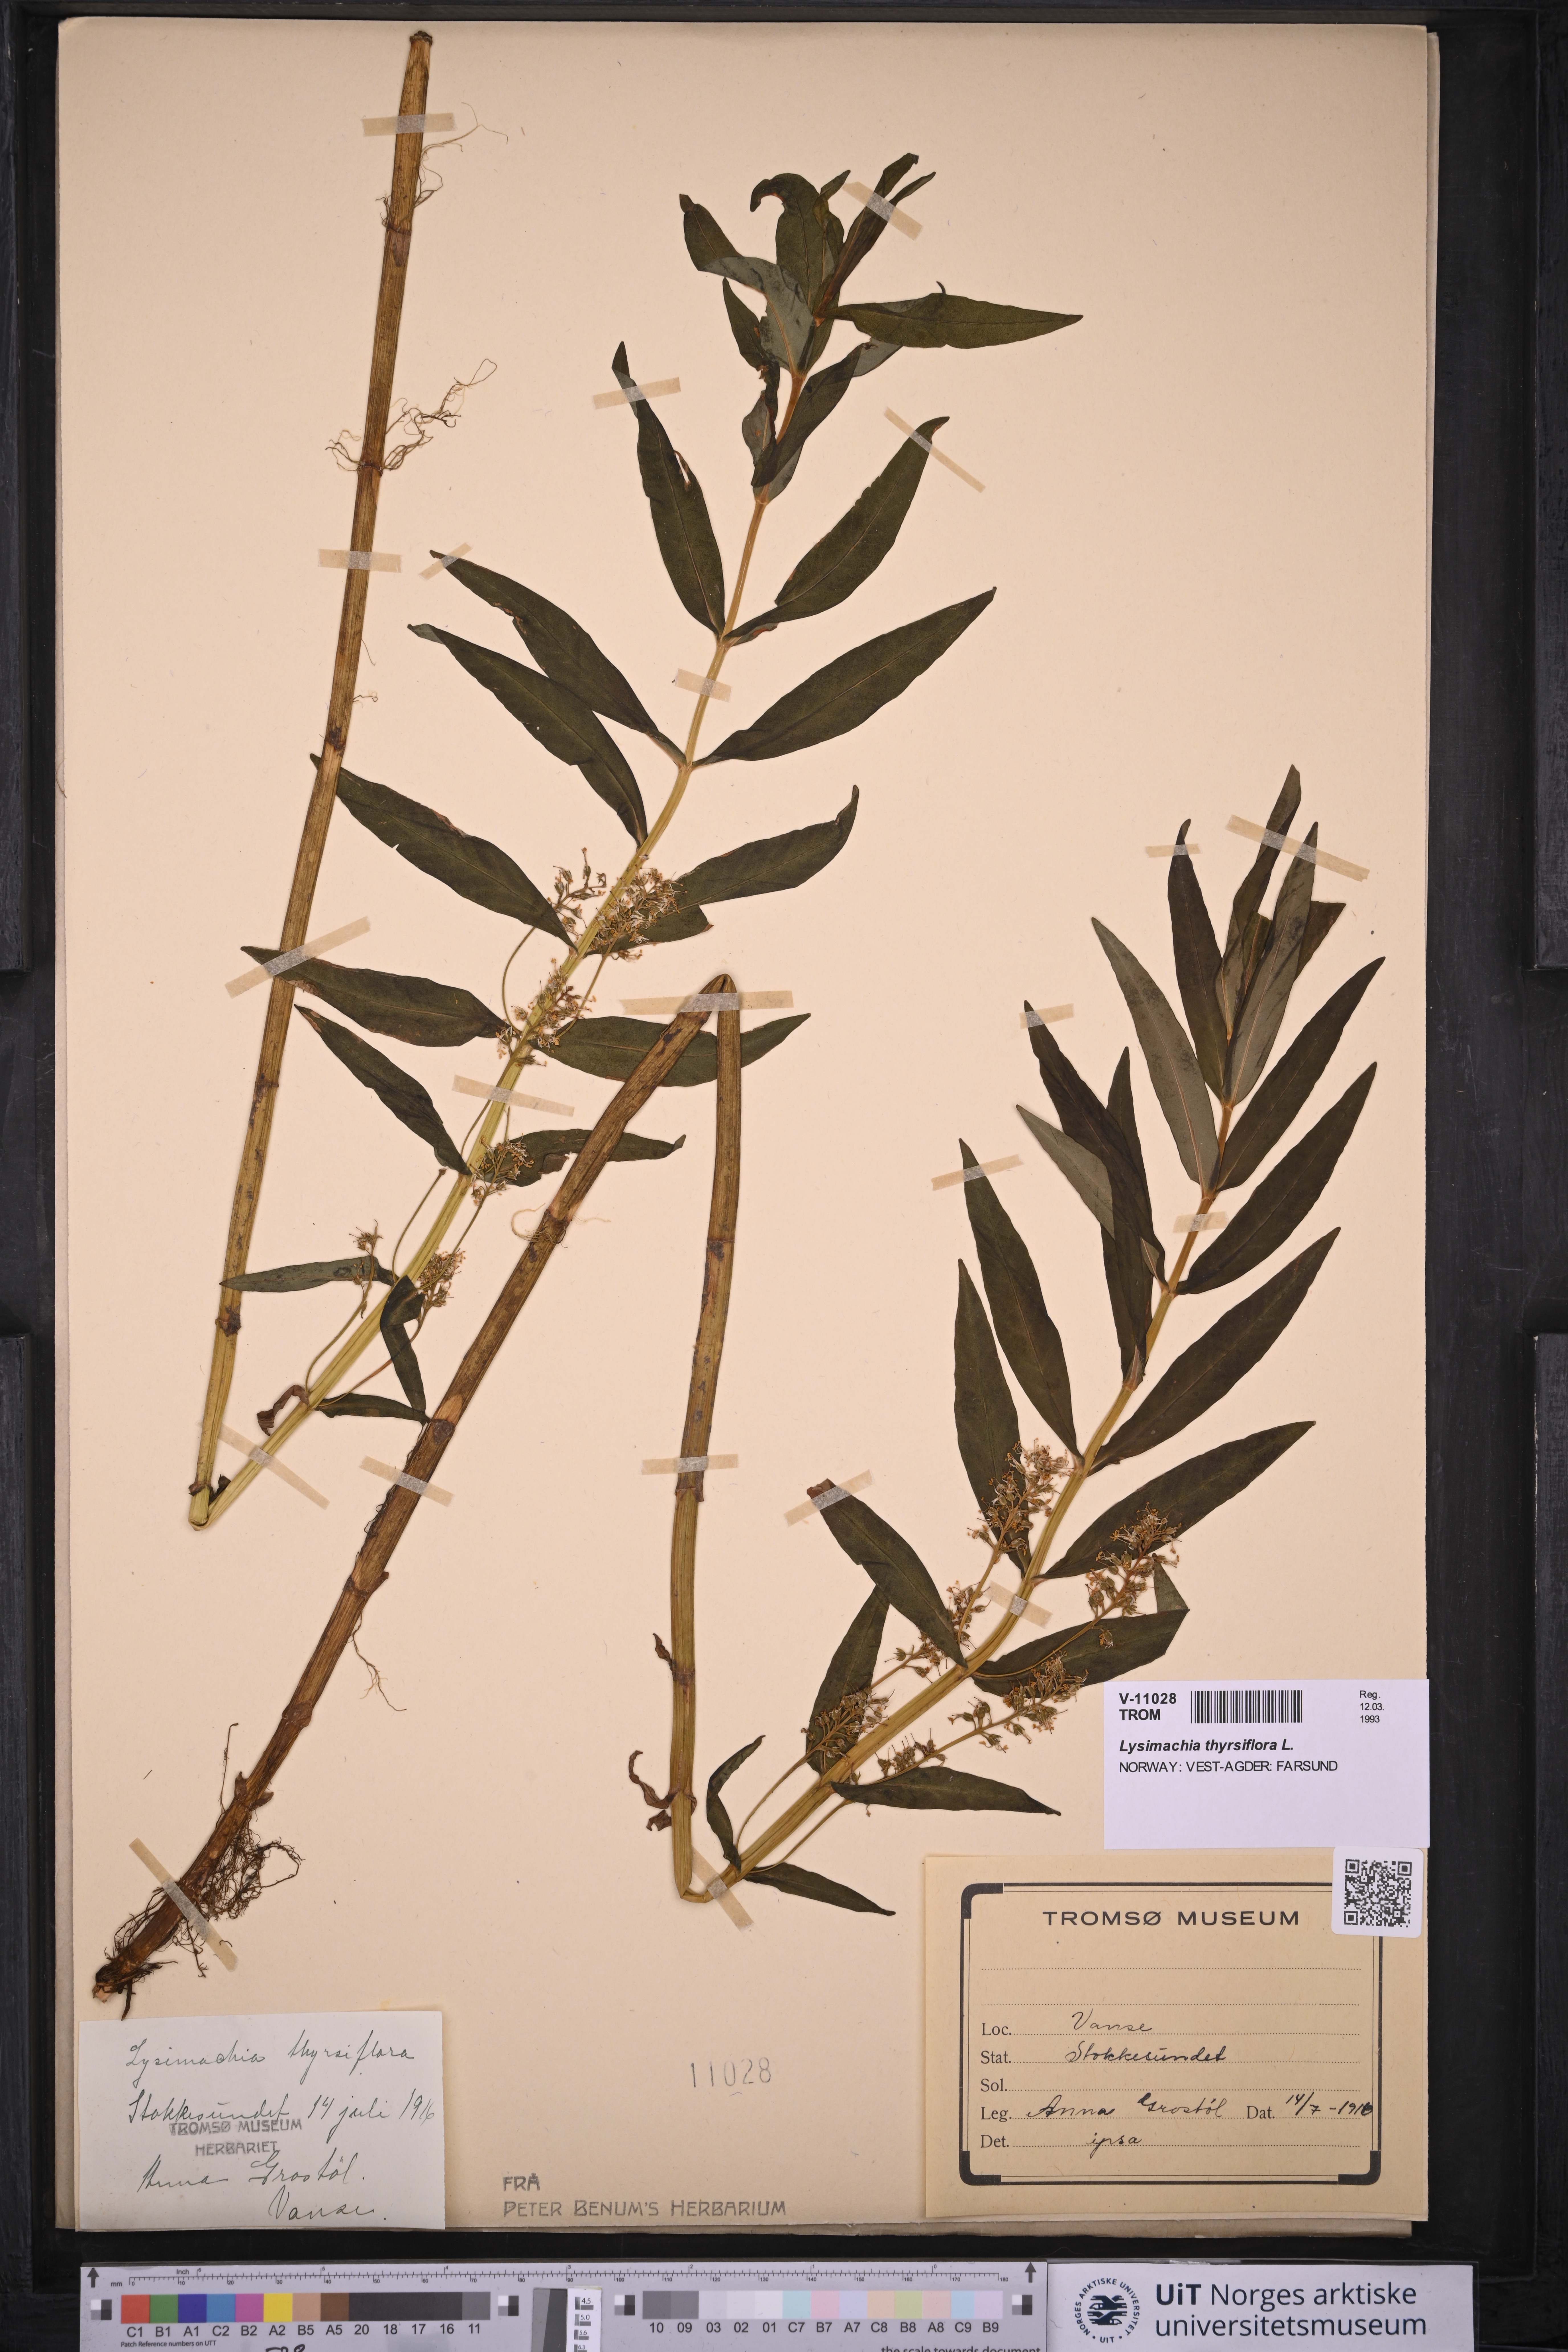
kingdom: Plantae
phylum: Tracheophyta
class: Magnoliopsida
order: Ericales
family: Primulaceae
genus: Lysimachia
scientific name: Lysimachia thyrsiflora
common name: Tufted loosestrife
